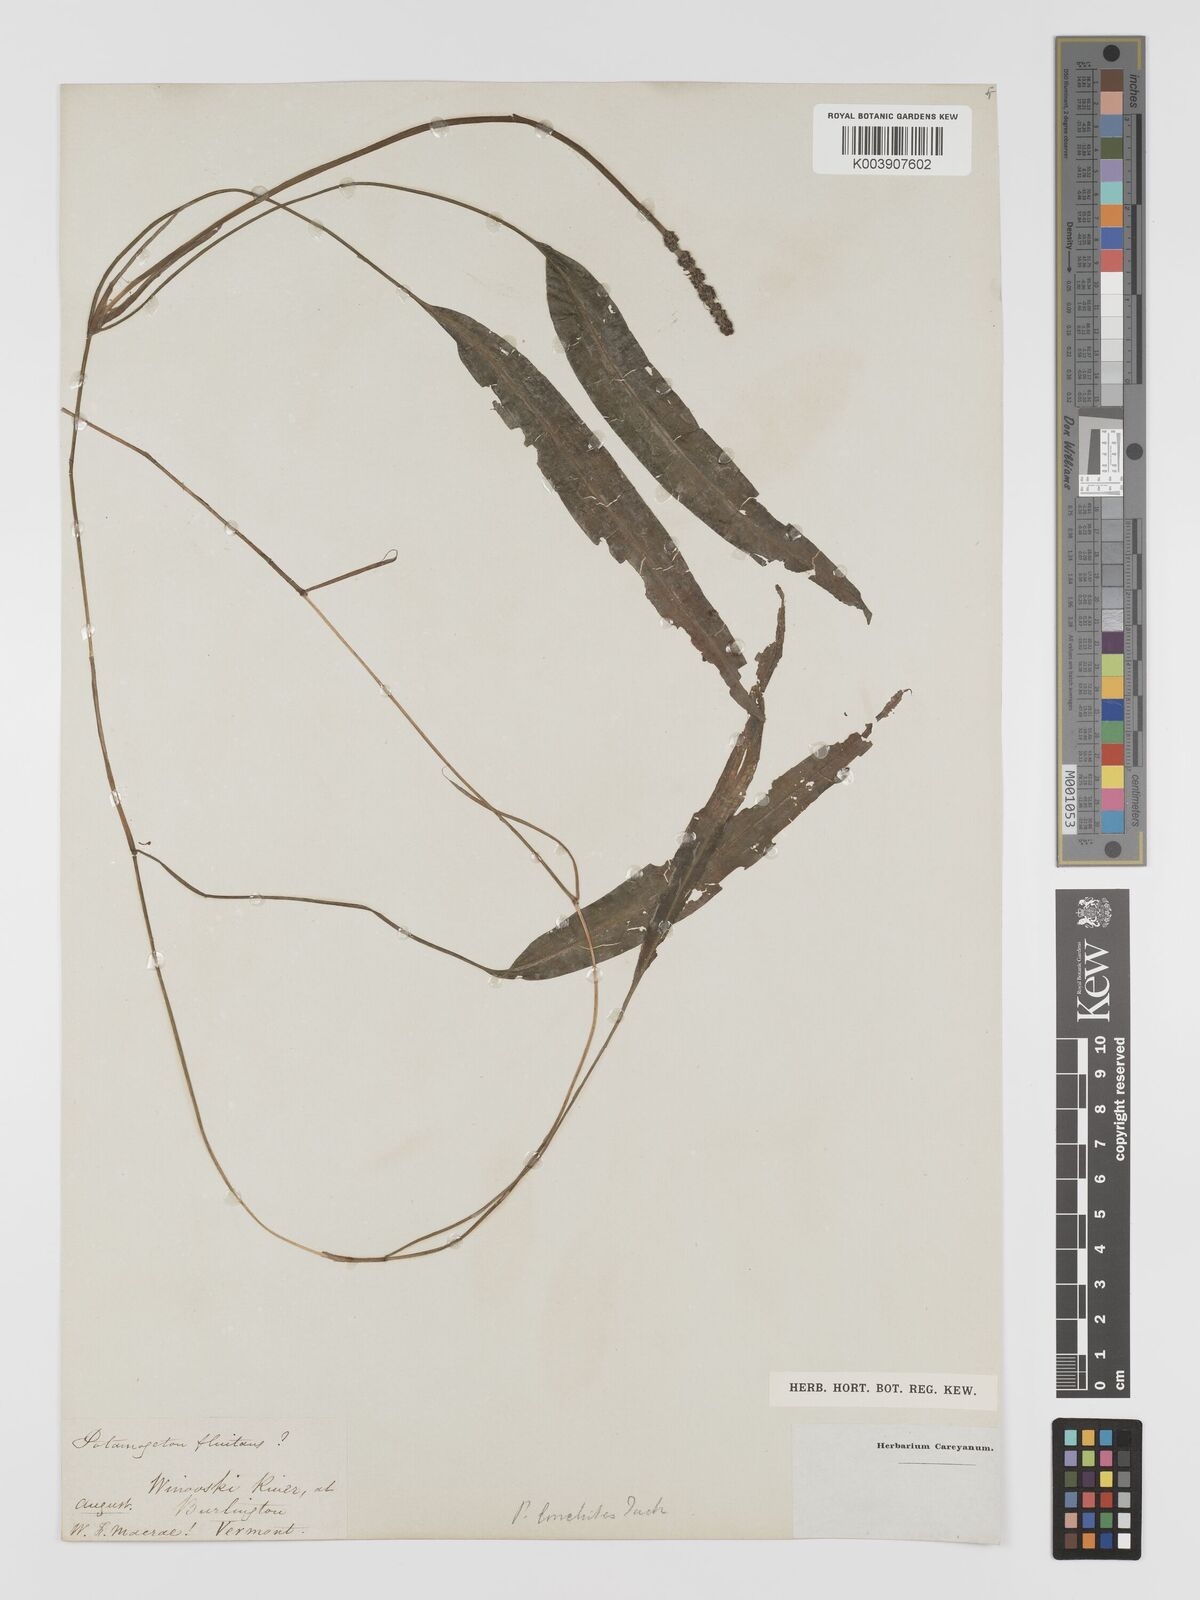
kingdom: Plantae
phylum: Tracheophyta
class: Liliopsida
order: Alismatales
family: Potamogetonaceae
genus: Potamogeton
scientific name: Potamogeton nodosus
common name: Loddon pondweed
